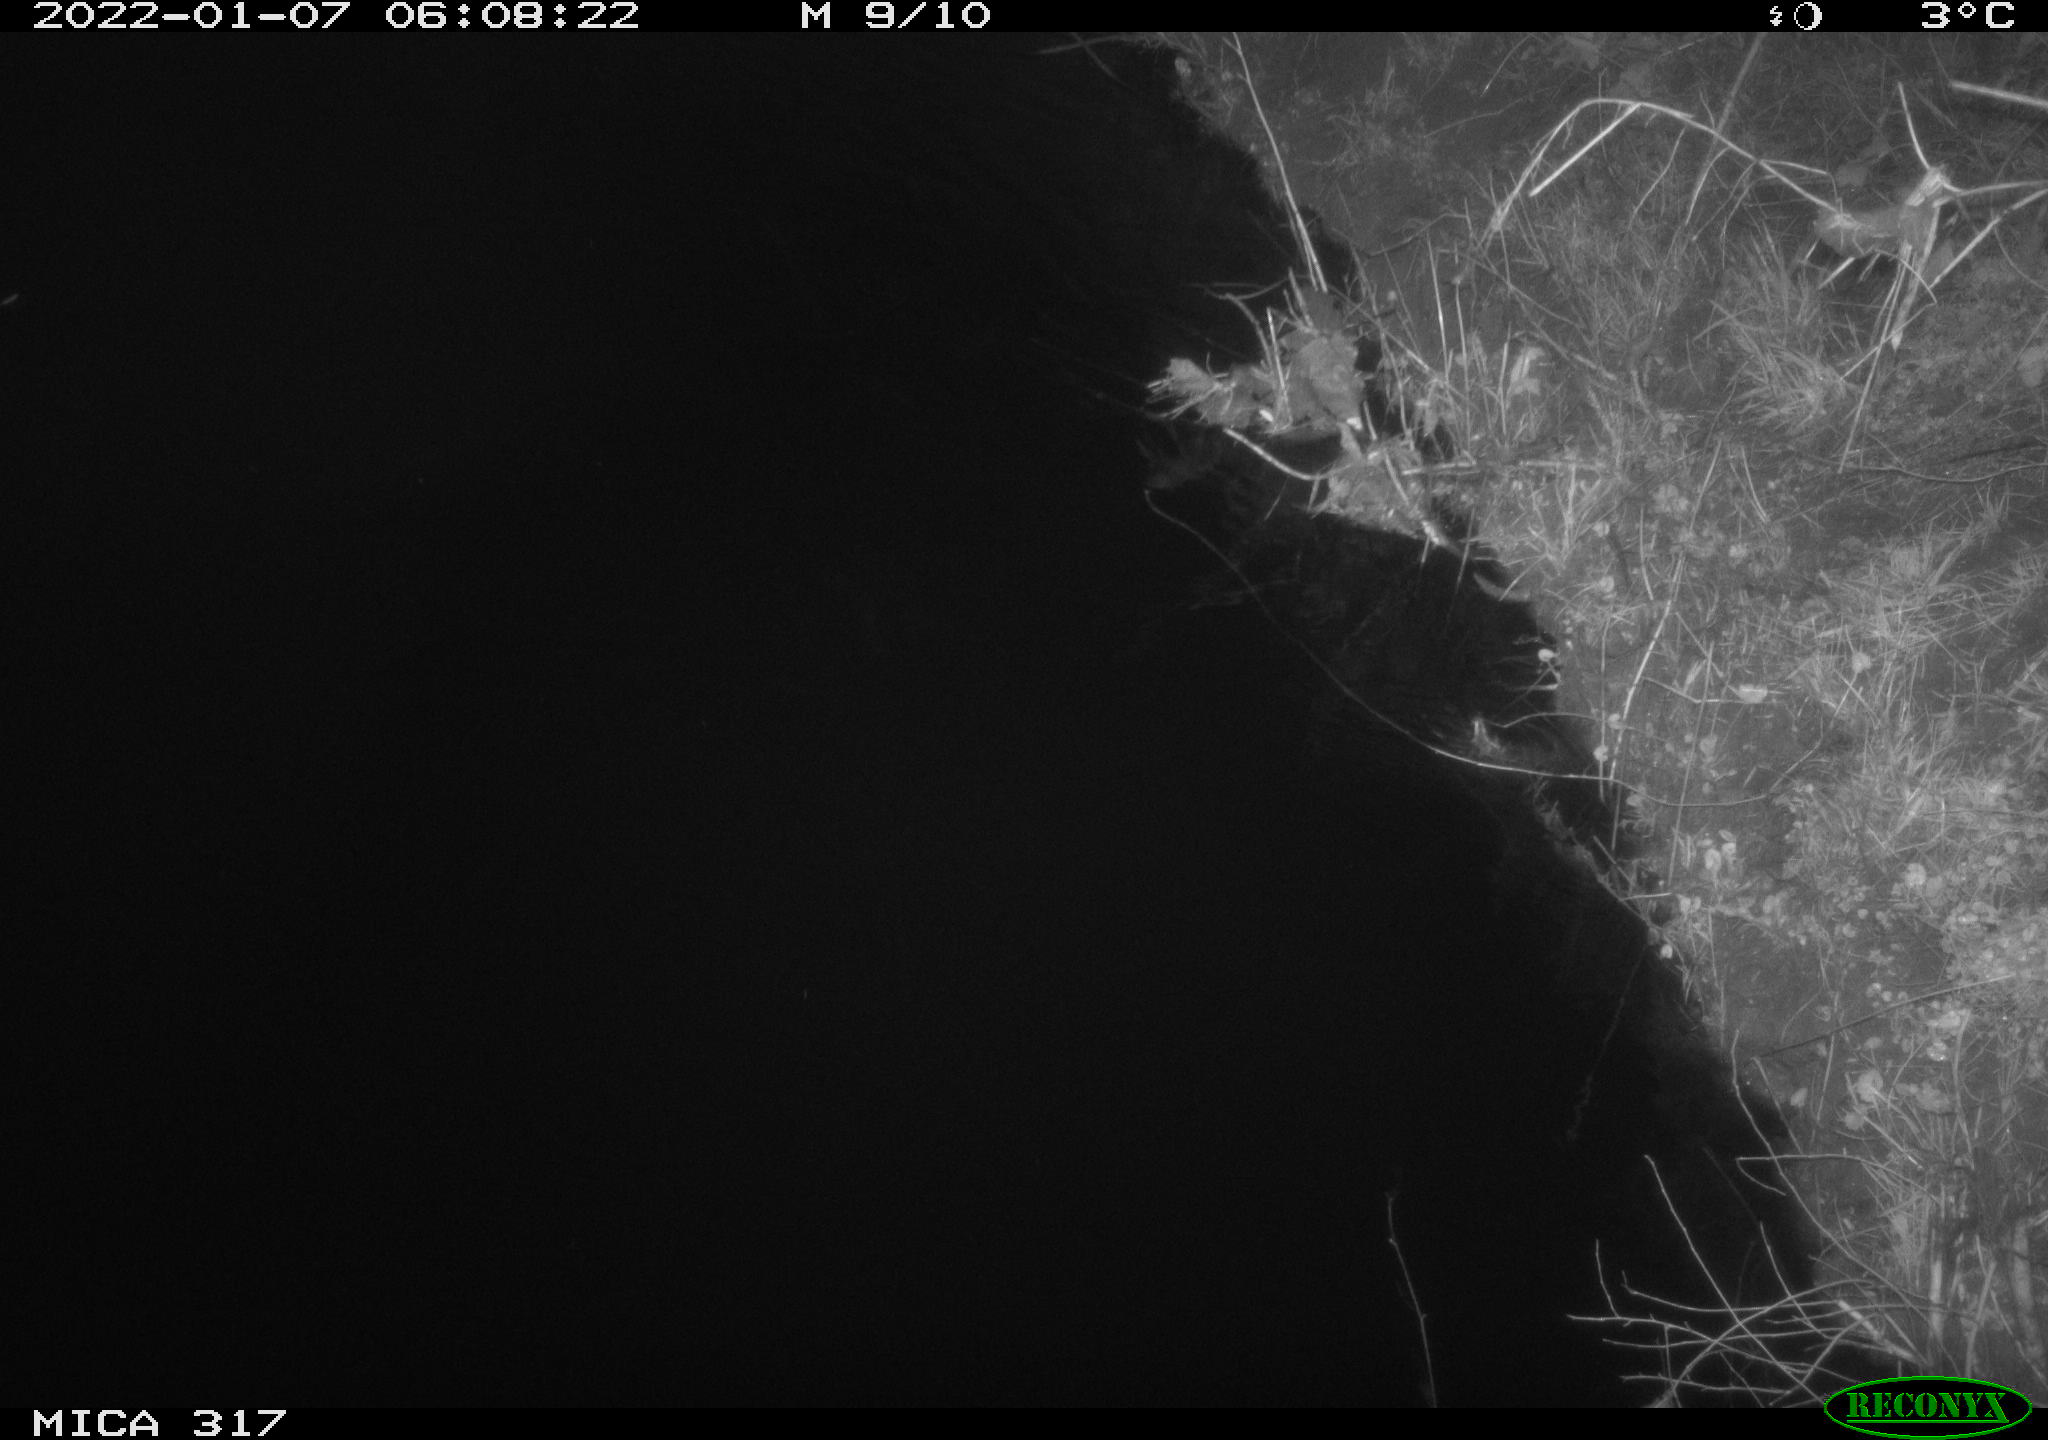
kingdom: Animalia
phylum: Chordata
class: Mammalia
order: Rodentia
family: Muridae
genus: Rattus
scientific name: Rattus norvegicus
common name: Brown rat
